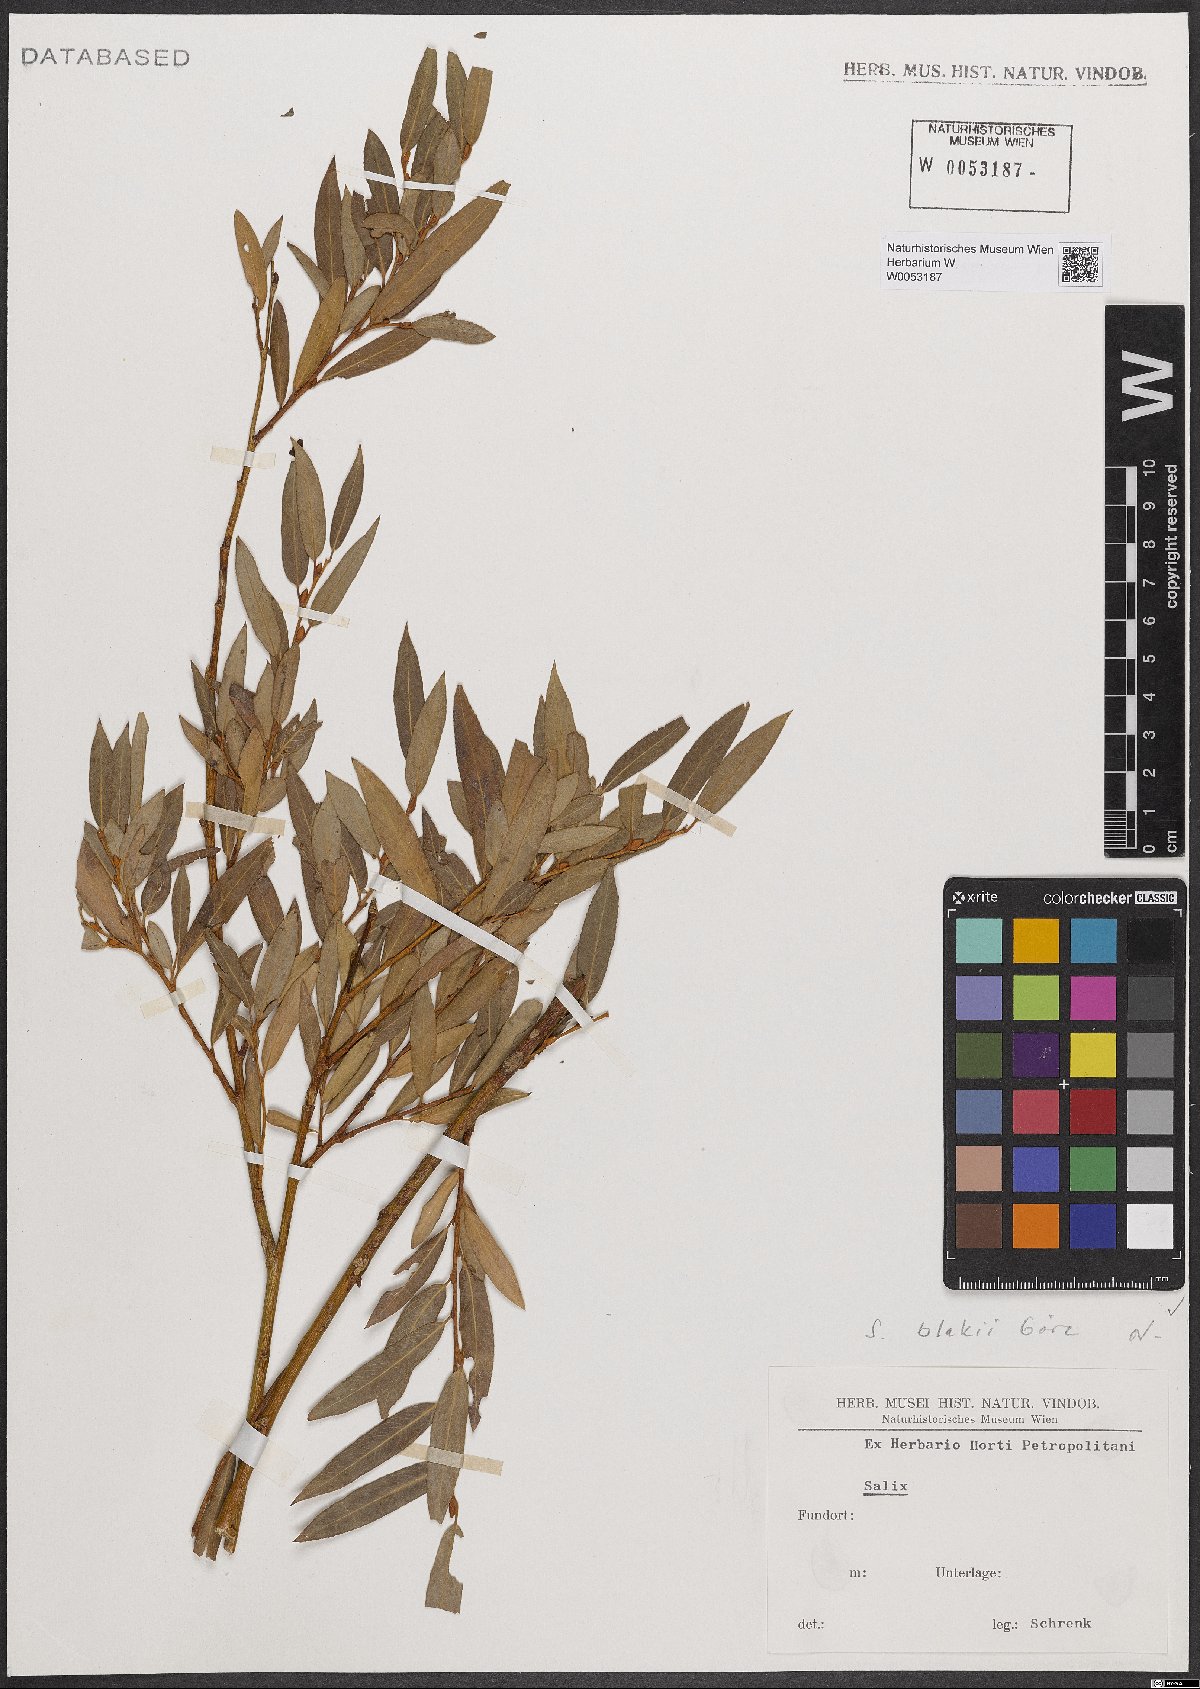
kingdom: Plantae
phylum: Tracheophyta
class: Magnoliopsida
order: Malpighiales
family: Salicaceae
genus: Salix
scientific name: Salix blakii
